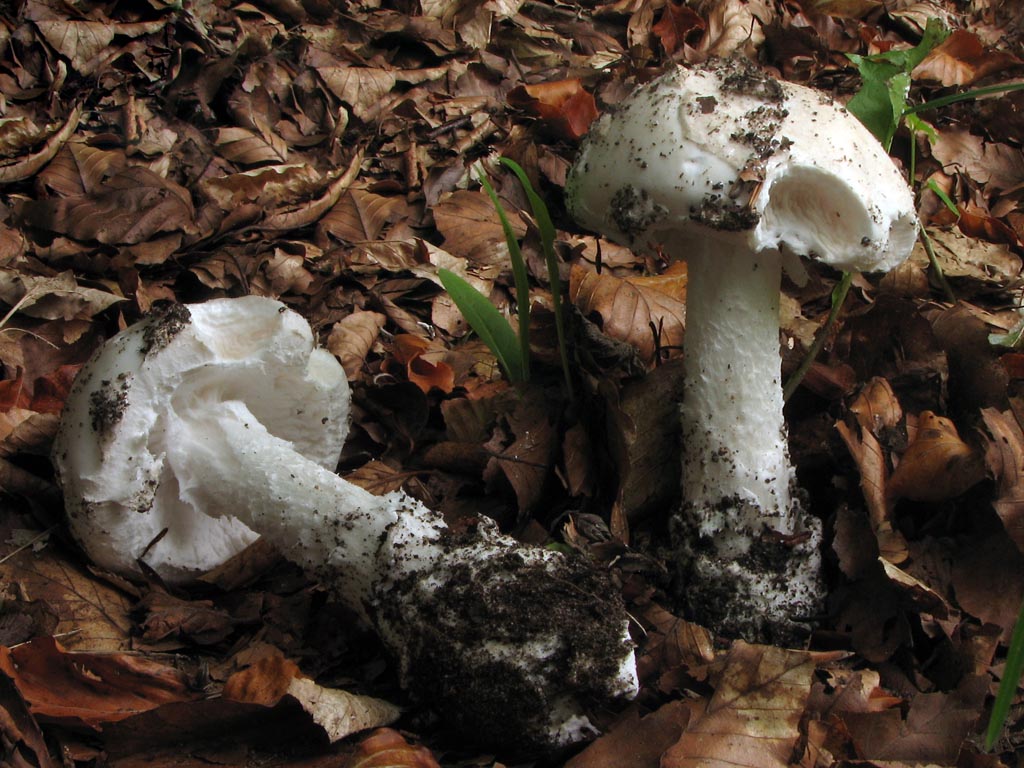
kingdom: Fungi
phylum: Basidiomycota
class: Agaricomycetes
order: Agaricales
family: Amanitaceae
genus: Amanita
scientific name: Amanita
